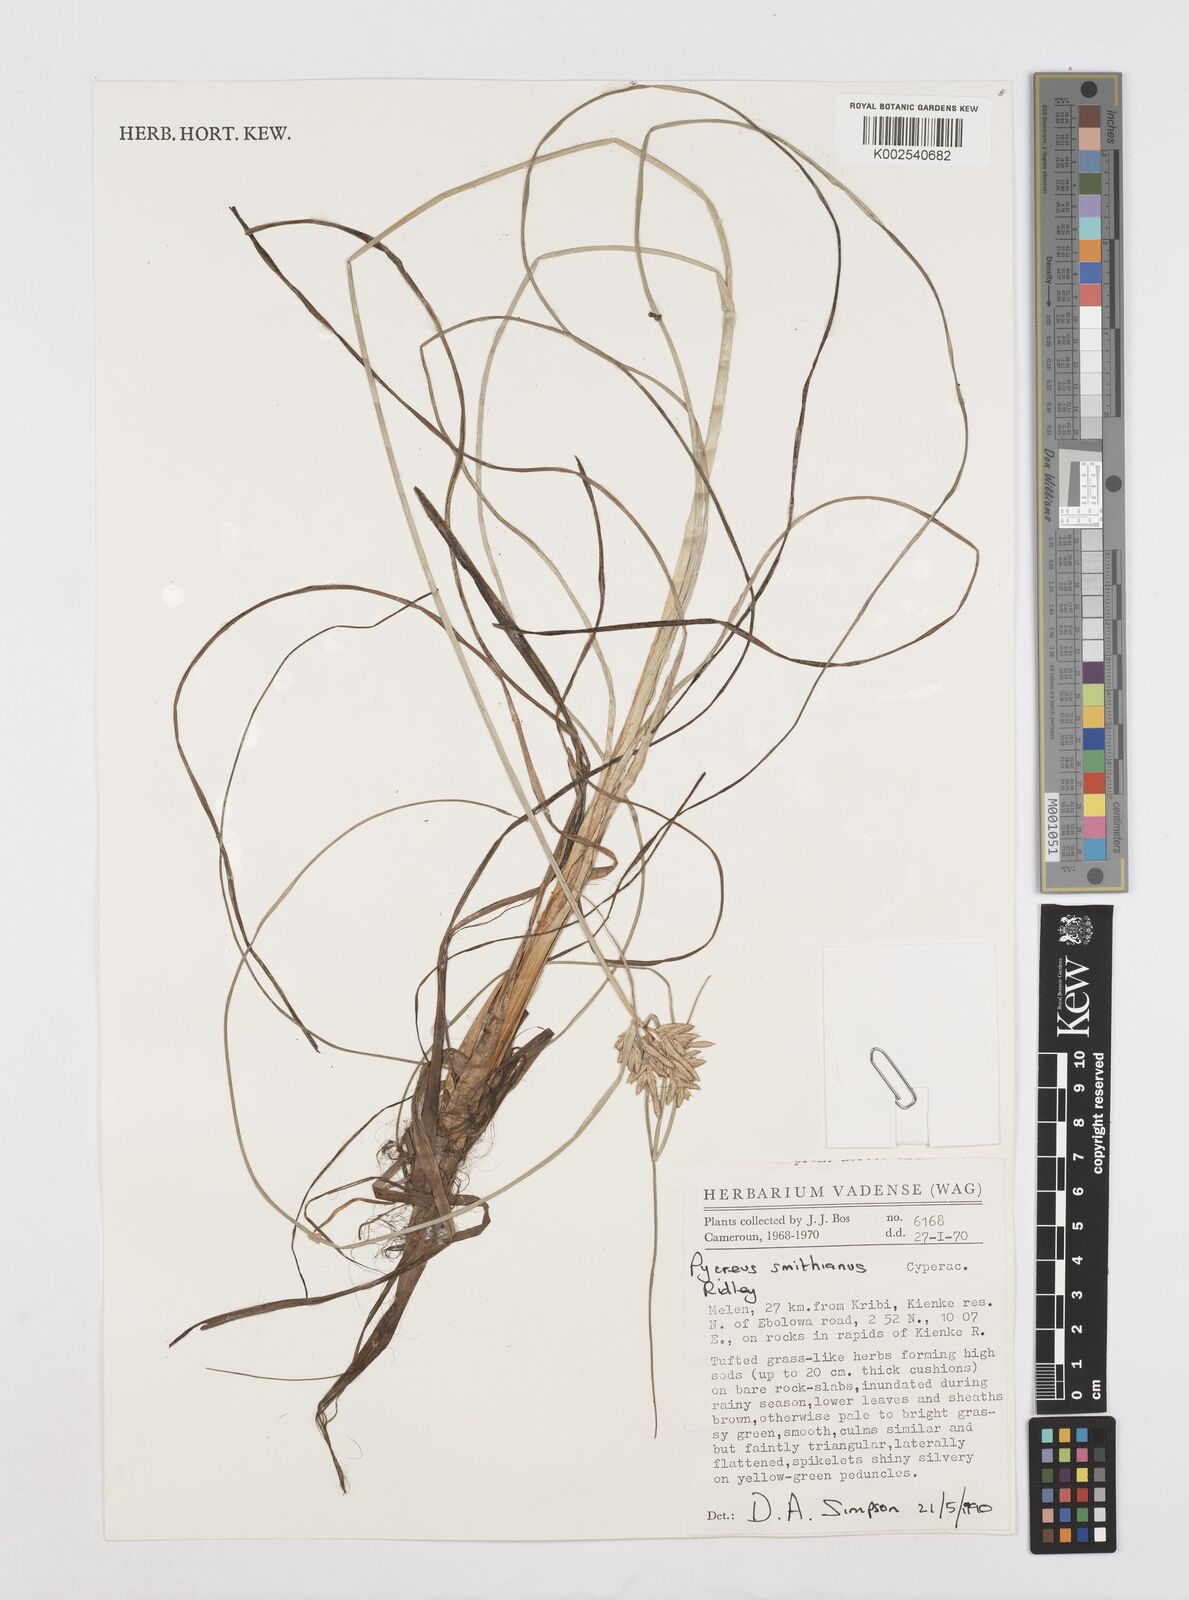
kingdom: Plantae
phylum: Tracheophyta
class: Liliopsida
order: Poales
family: Cyperaceae
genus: Cyperus
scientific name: Cyperus smithianus
